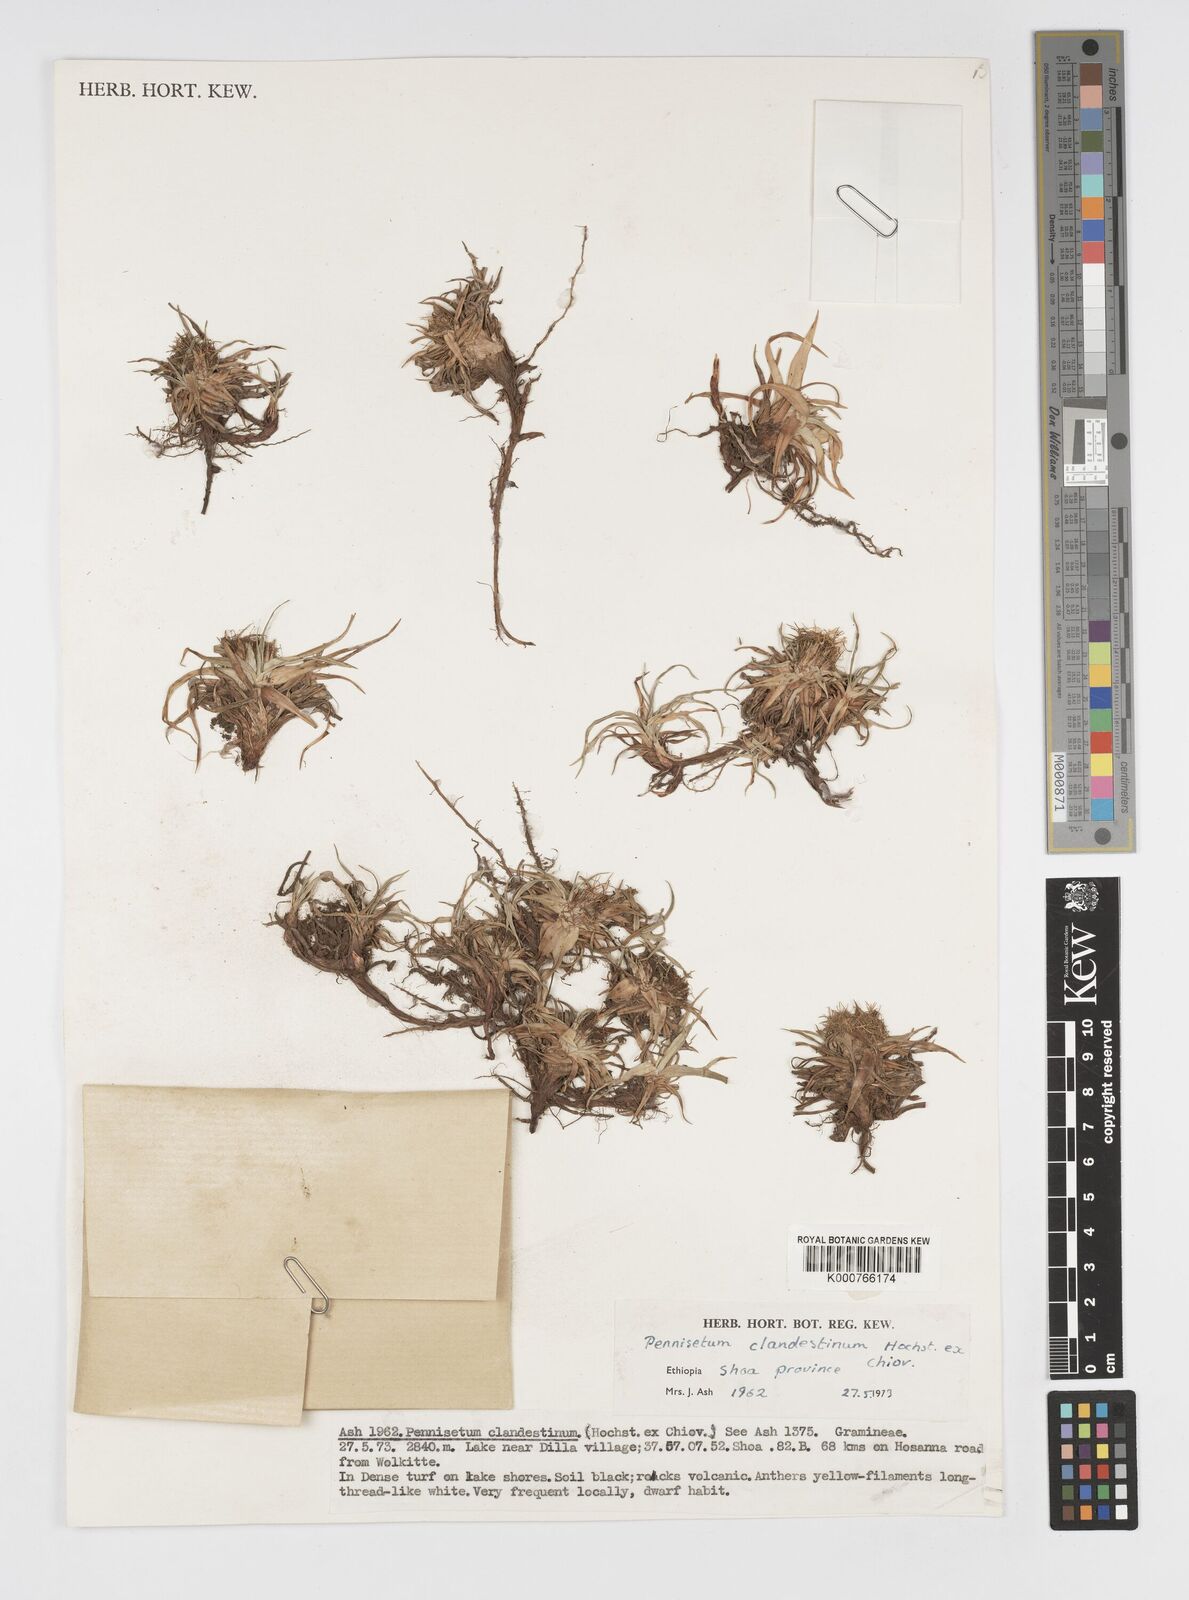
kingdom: Plantae
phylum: Tracheophyta
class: Liliopsida
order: Poales
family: Poaceae
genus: Cenchrus
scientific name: Cenchrus clandestinus
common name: Kikuyugrass
